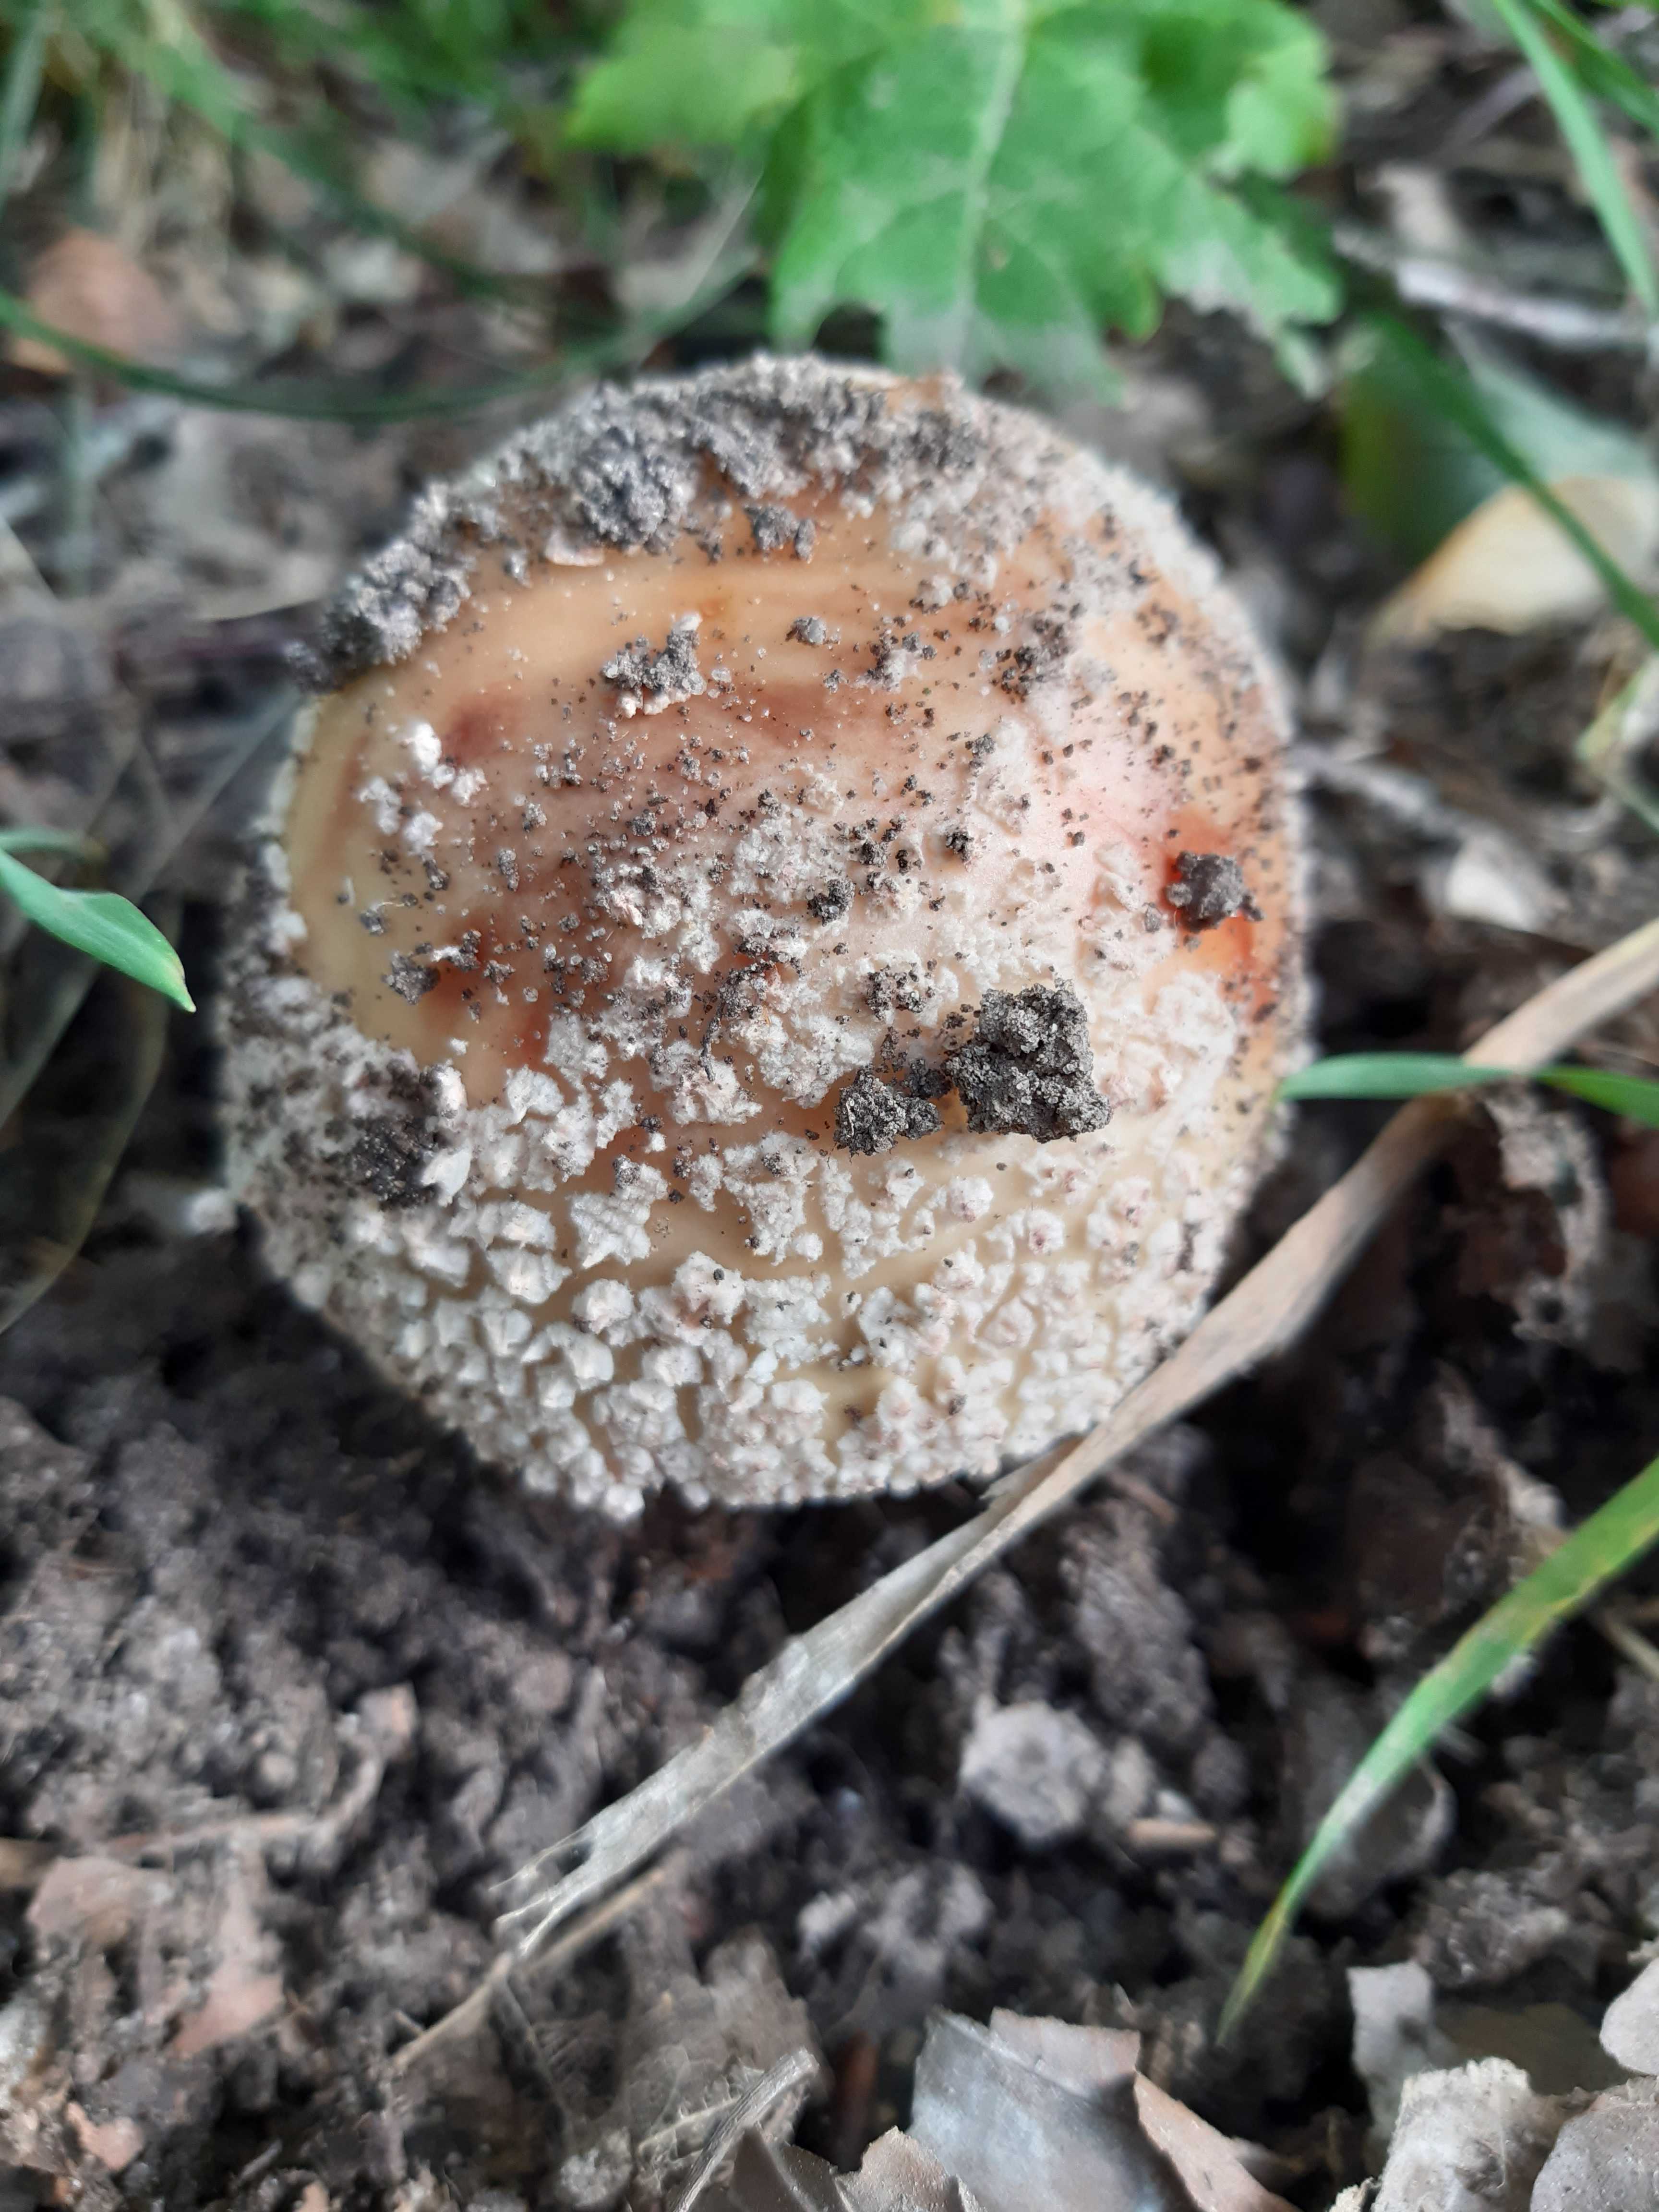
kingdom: Fungi
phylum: Basidiomycota
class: Agaricomycetes
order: Agaricales
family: Amanitaceae
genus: Amanita
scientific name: Amanita rubescens
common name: rødmende fluesvamp
